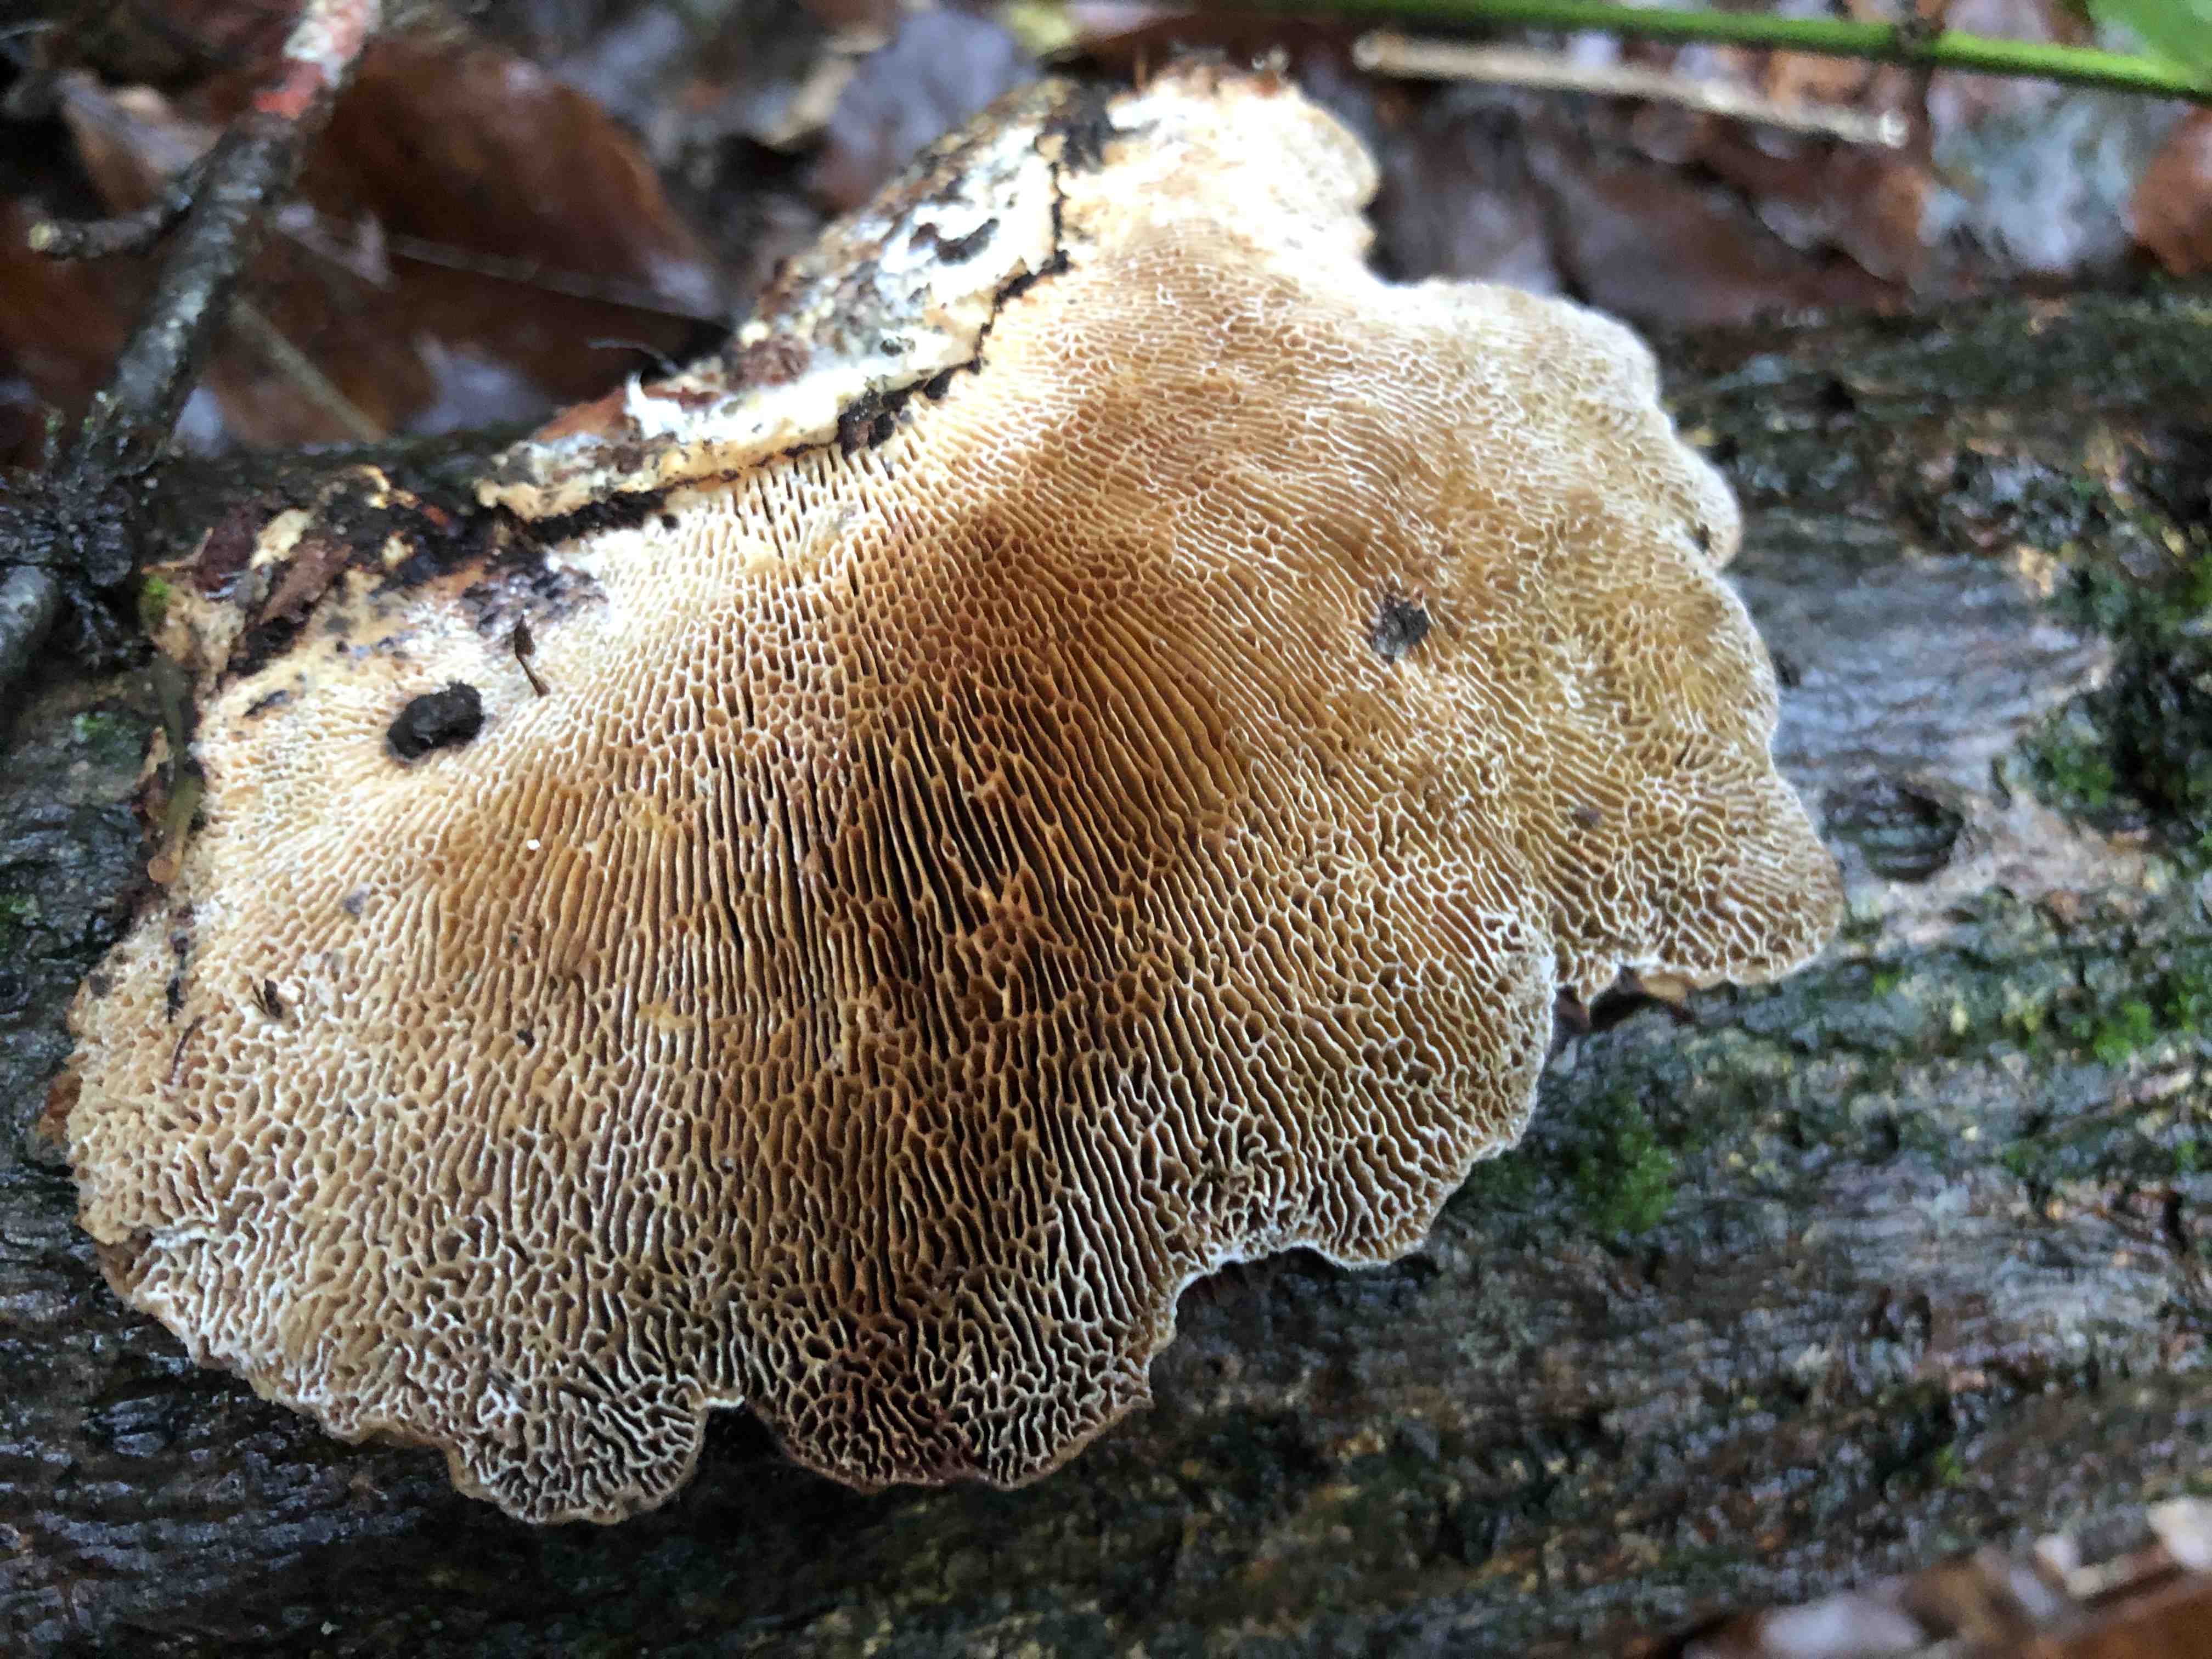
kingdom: Fungi
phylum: Basidiomycota
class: Agaricomycetes
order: Polyporales
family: Polyporaceae
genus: Daedaleopsis
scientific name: Daedaleopsis confragosa
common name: rødmende læderporesvamp
